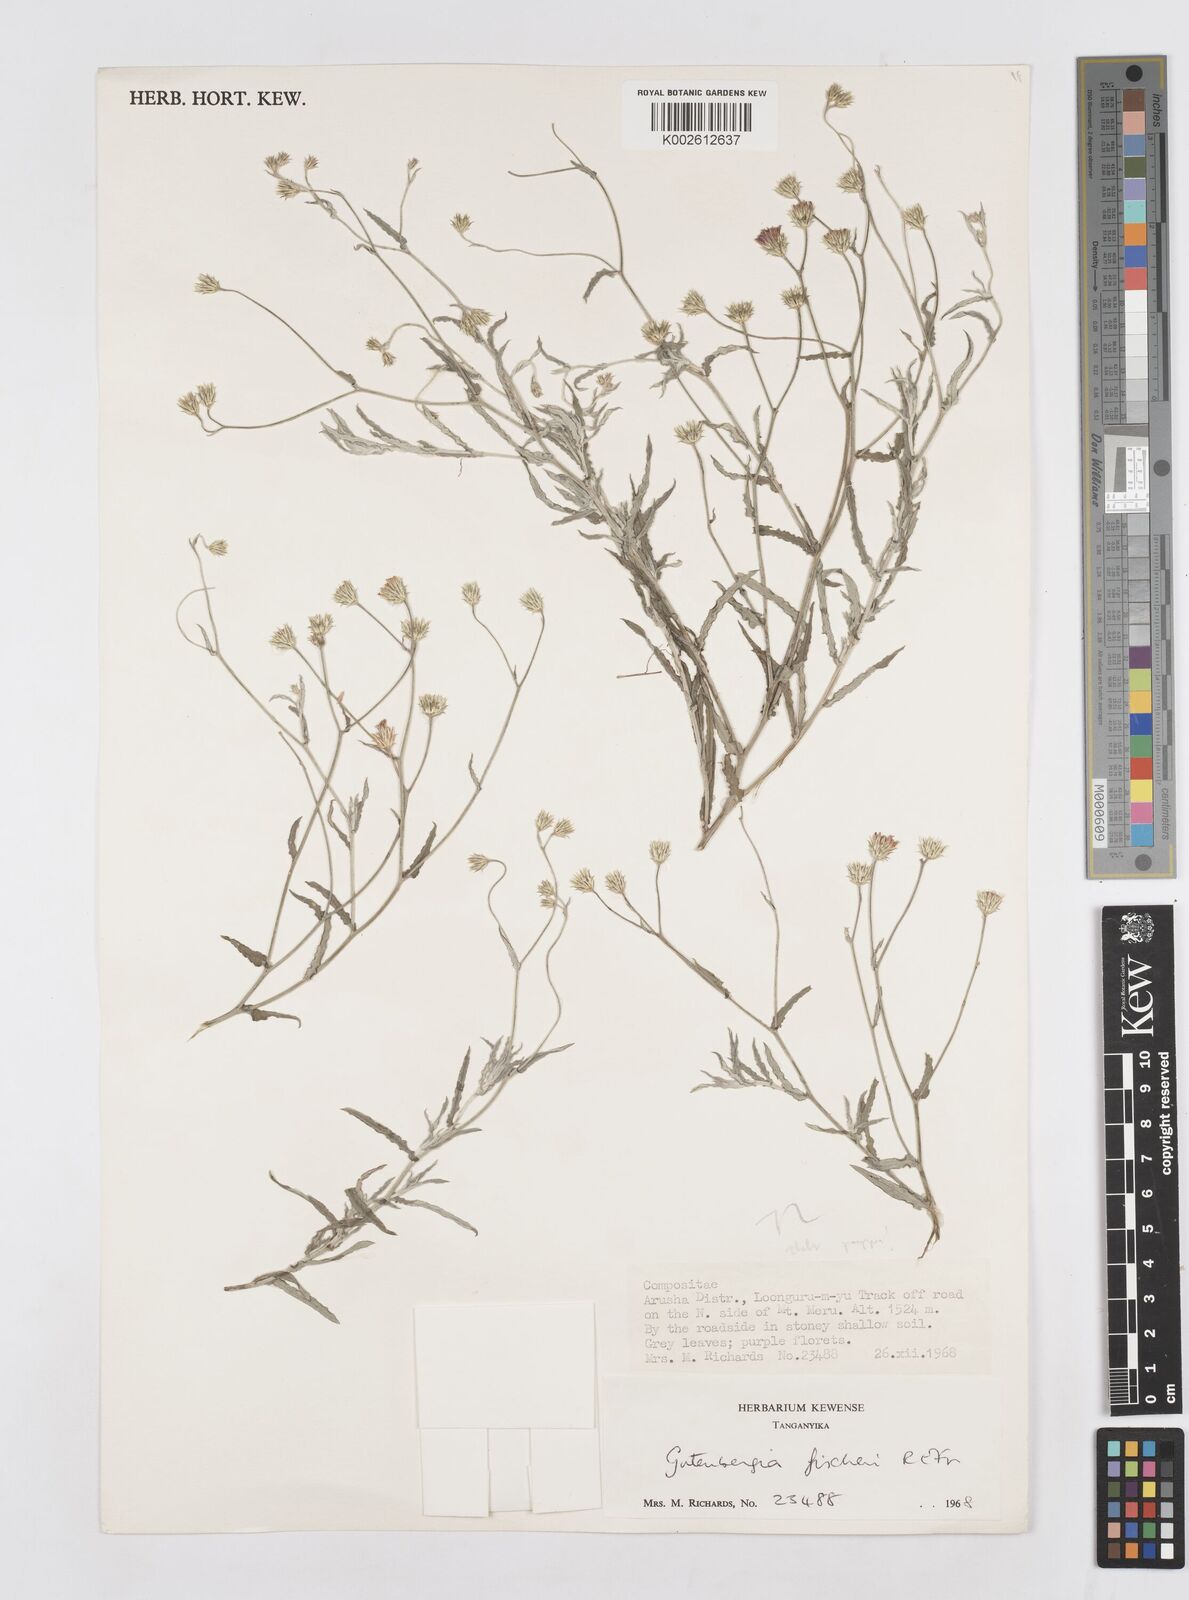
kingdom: Plantae
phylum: Tracheophyta
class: Magnoliopsida
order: Asterales
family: Asteraceae
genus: Gutenbergia
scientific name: Gutenbergia rueppellii
